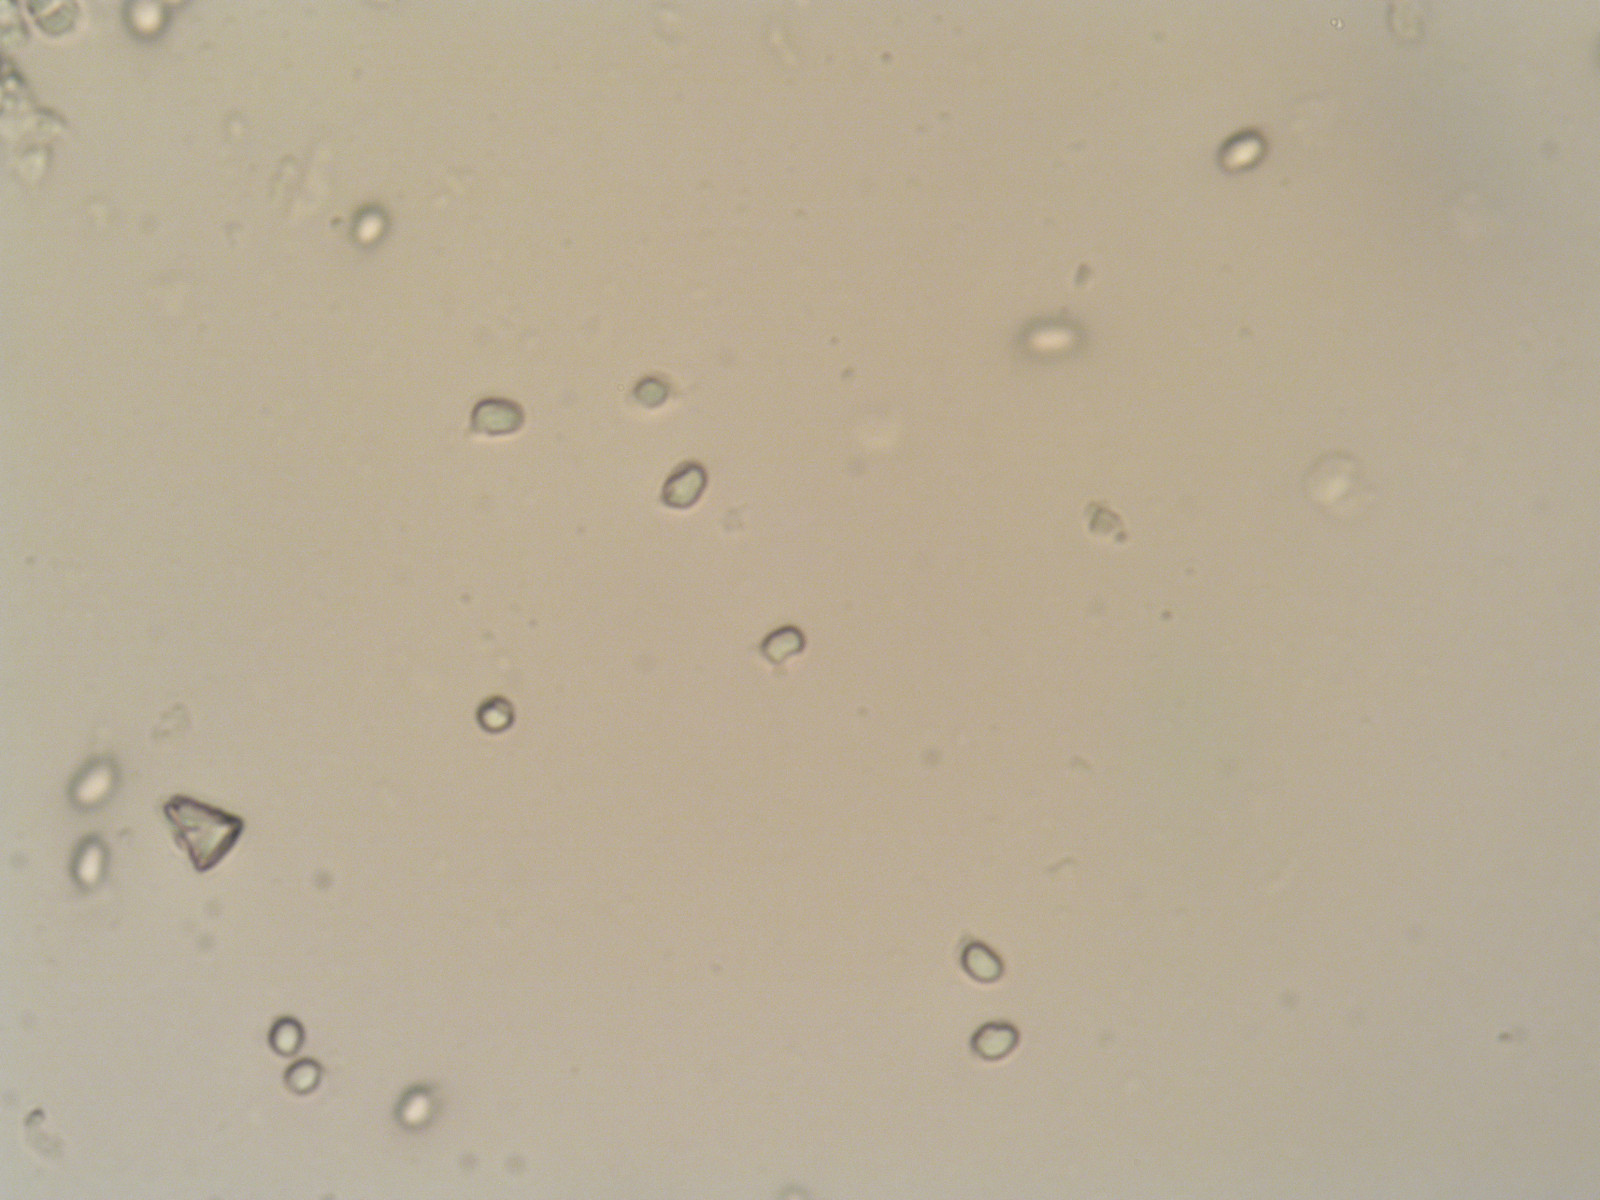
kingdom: Fungi
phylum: Basidiomycota
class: Agaricomycetes
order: Agaricales
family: Hygrophoraceae
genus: Gliophorus
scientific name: Gliophorus laetus
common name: brusk-vokshat
